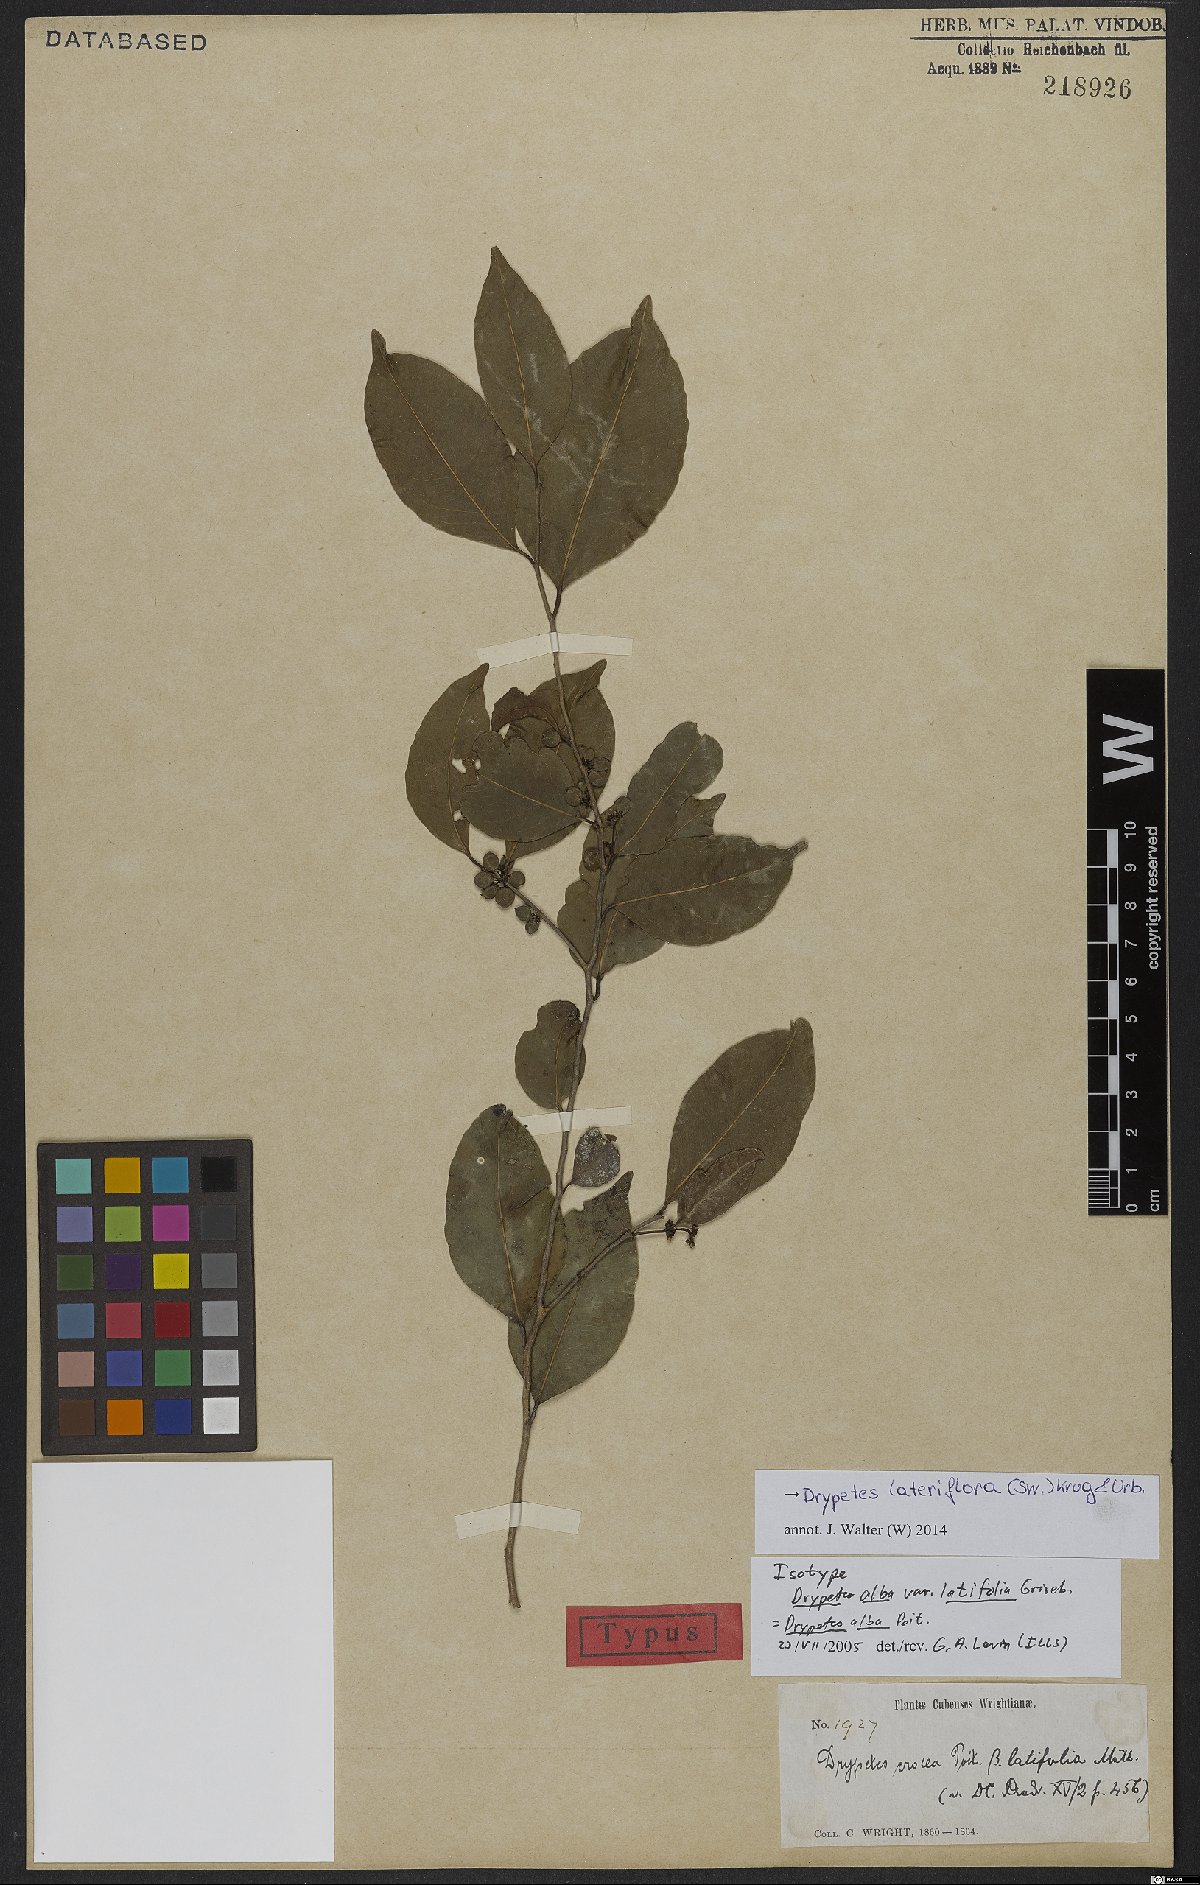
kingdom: Plantae
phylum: Tracheophyta
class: Magnoliopsida
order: Malpighiales
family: Putranjivaceae
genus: Drypetes
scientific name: Drypetes lateriflora
